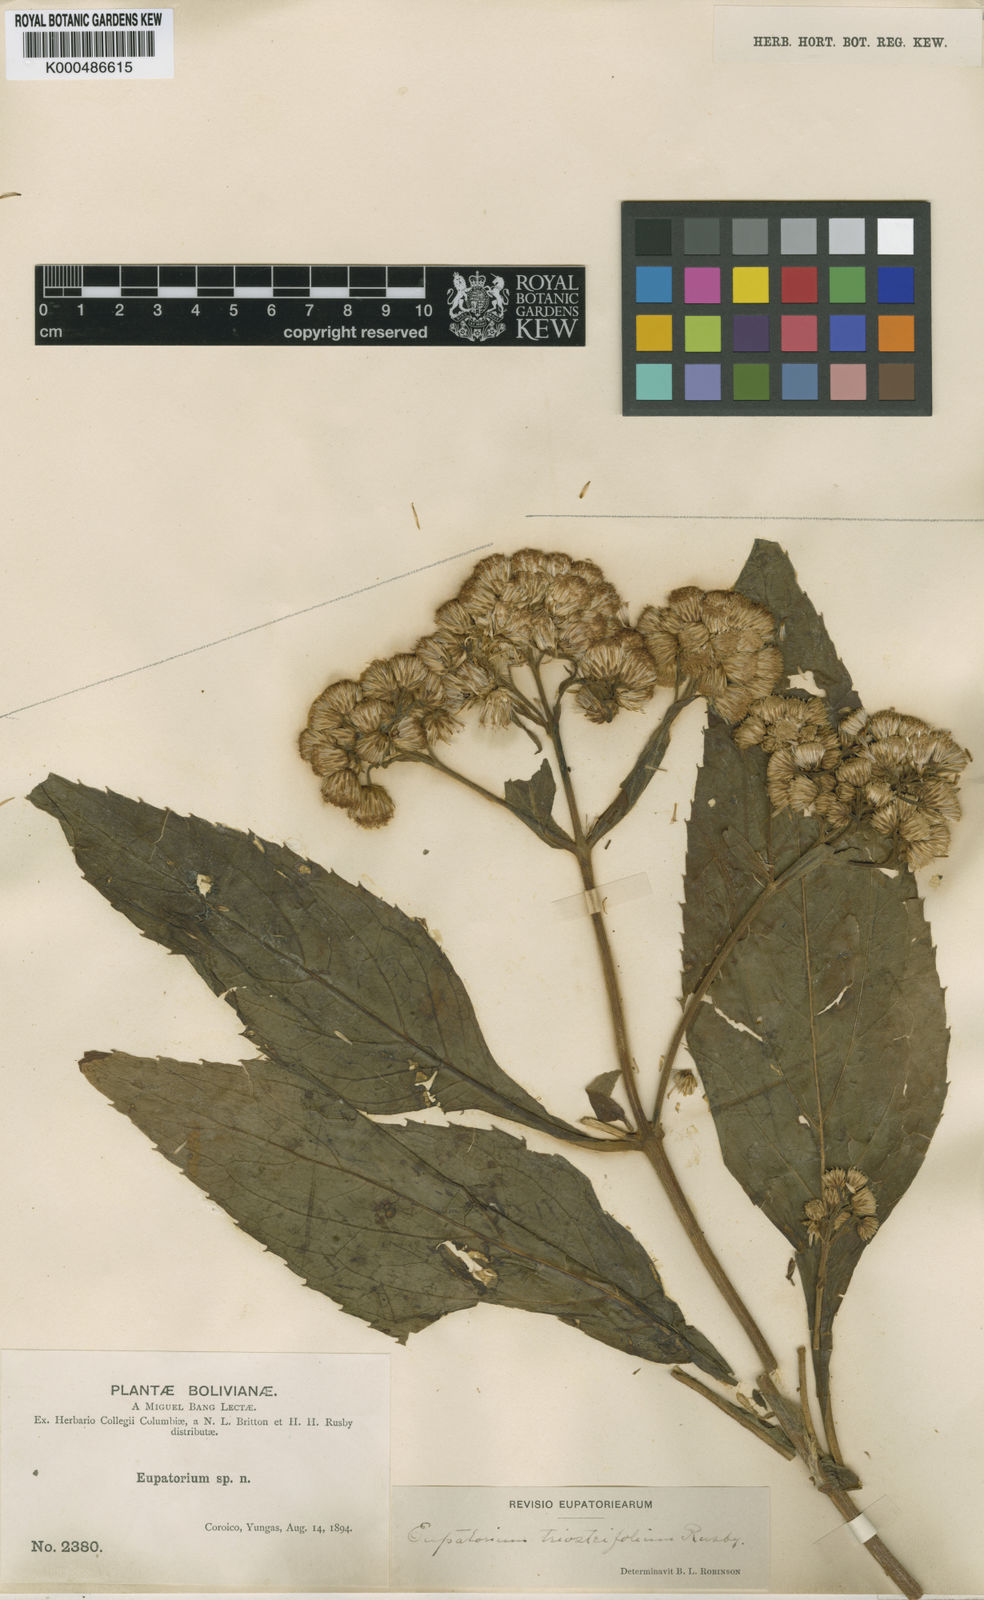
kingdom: Plantae
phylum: Tracheophyta
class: Magnoliopsida
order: Asterales
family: Asteraceae
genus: Ayapanopsis
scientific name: Ayapanopsis triosteifolia
